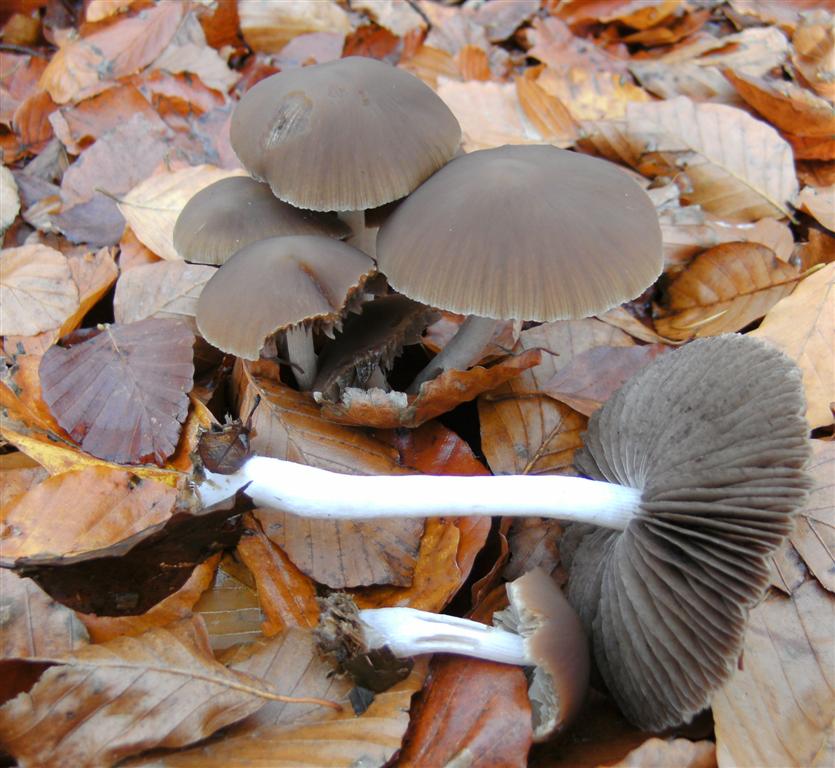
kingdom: Fungi
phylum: Basidiomycota
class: Agaricomycetes
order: Agaricales
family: Psathyrellaceae
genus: Psathyrella
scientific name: Psathyrella rostellata
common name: næbbet mørkhat
